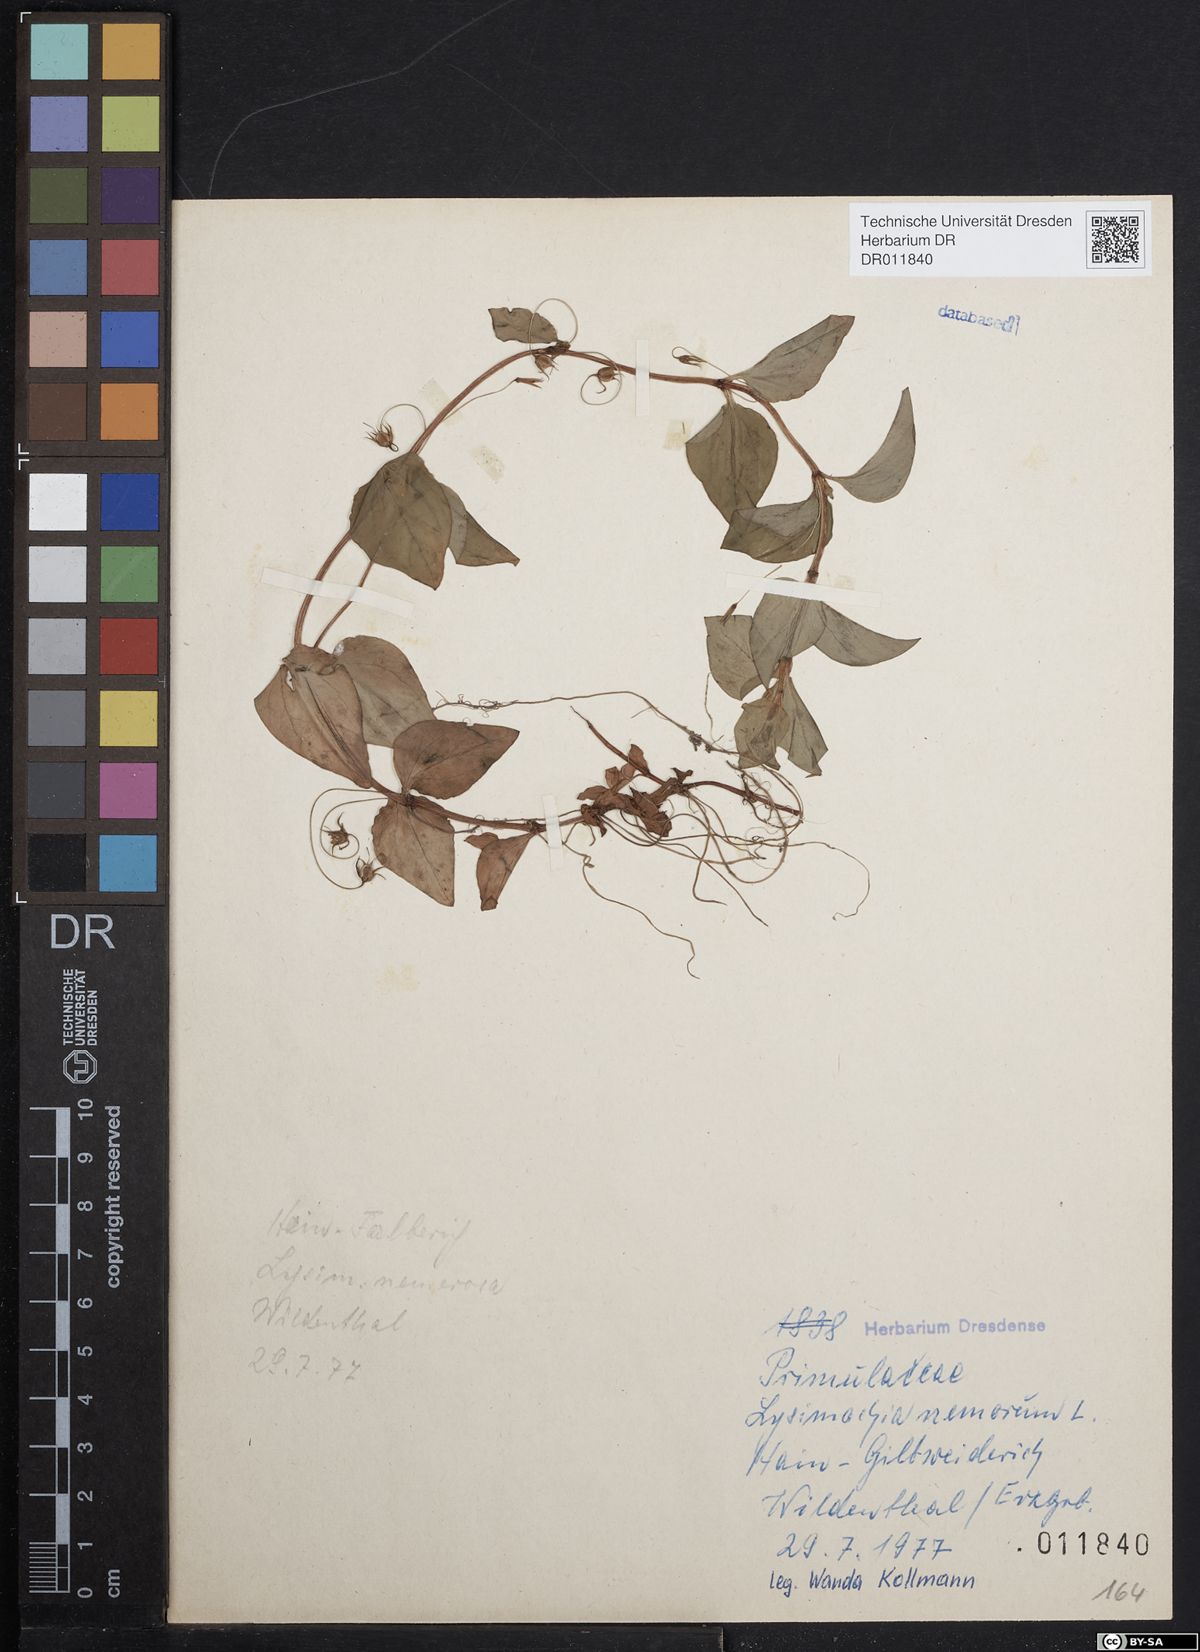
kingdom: Plantae
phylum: Tracheophyta
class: Magnoliopsida
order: Ericales
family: Primulaceae
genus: Lysimachia
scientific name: Lysimachia nemorum
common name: Yellow pimpernel
